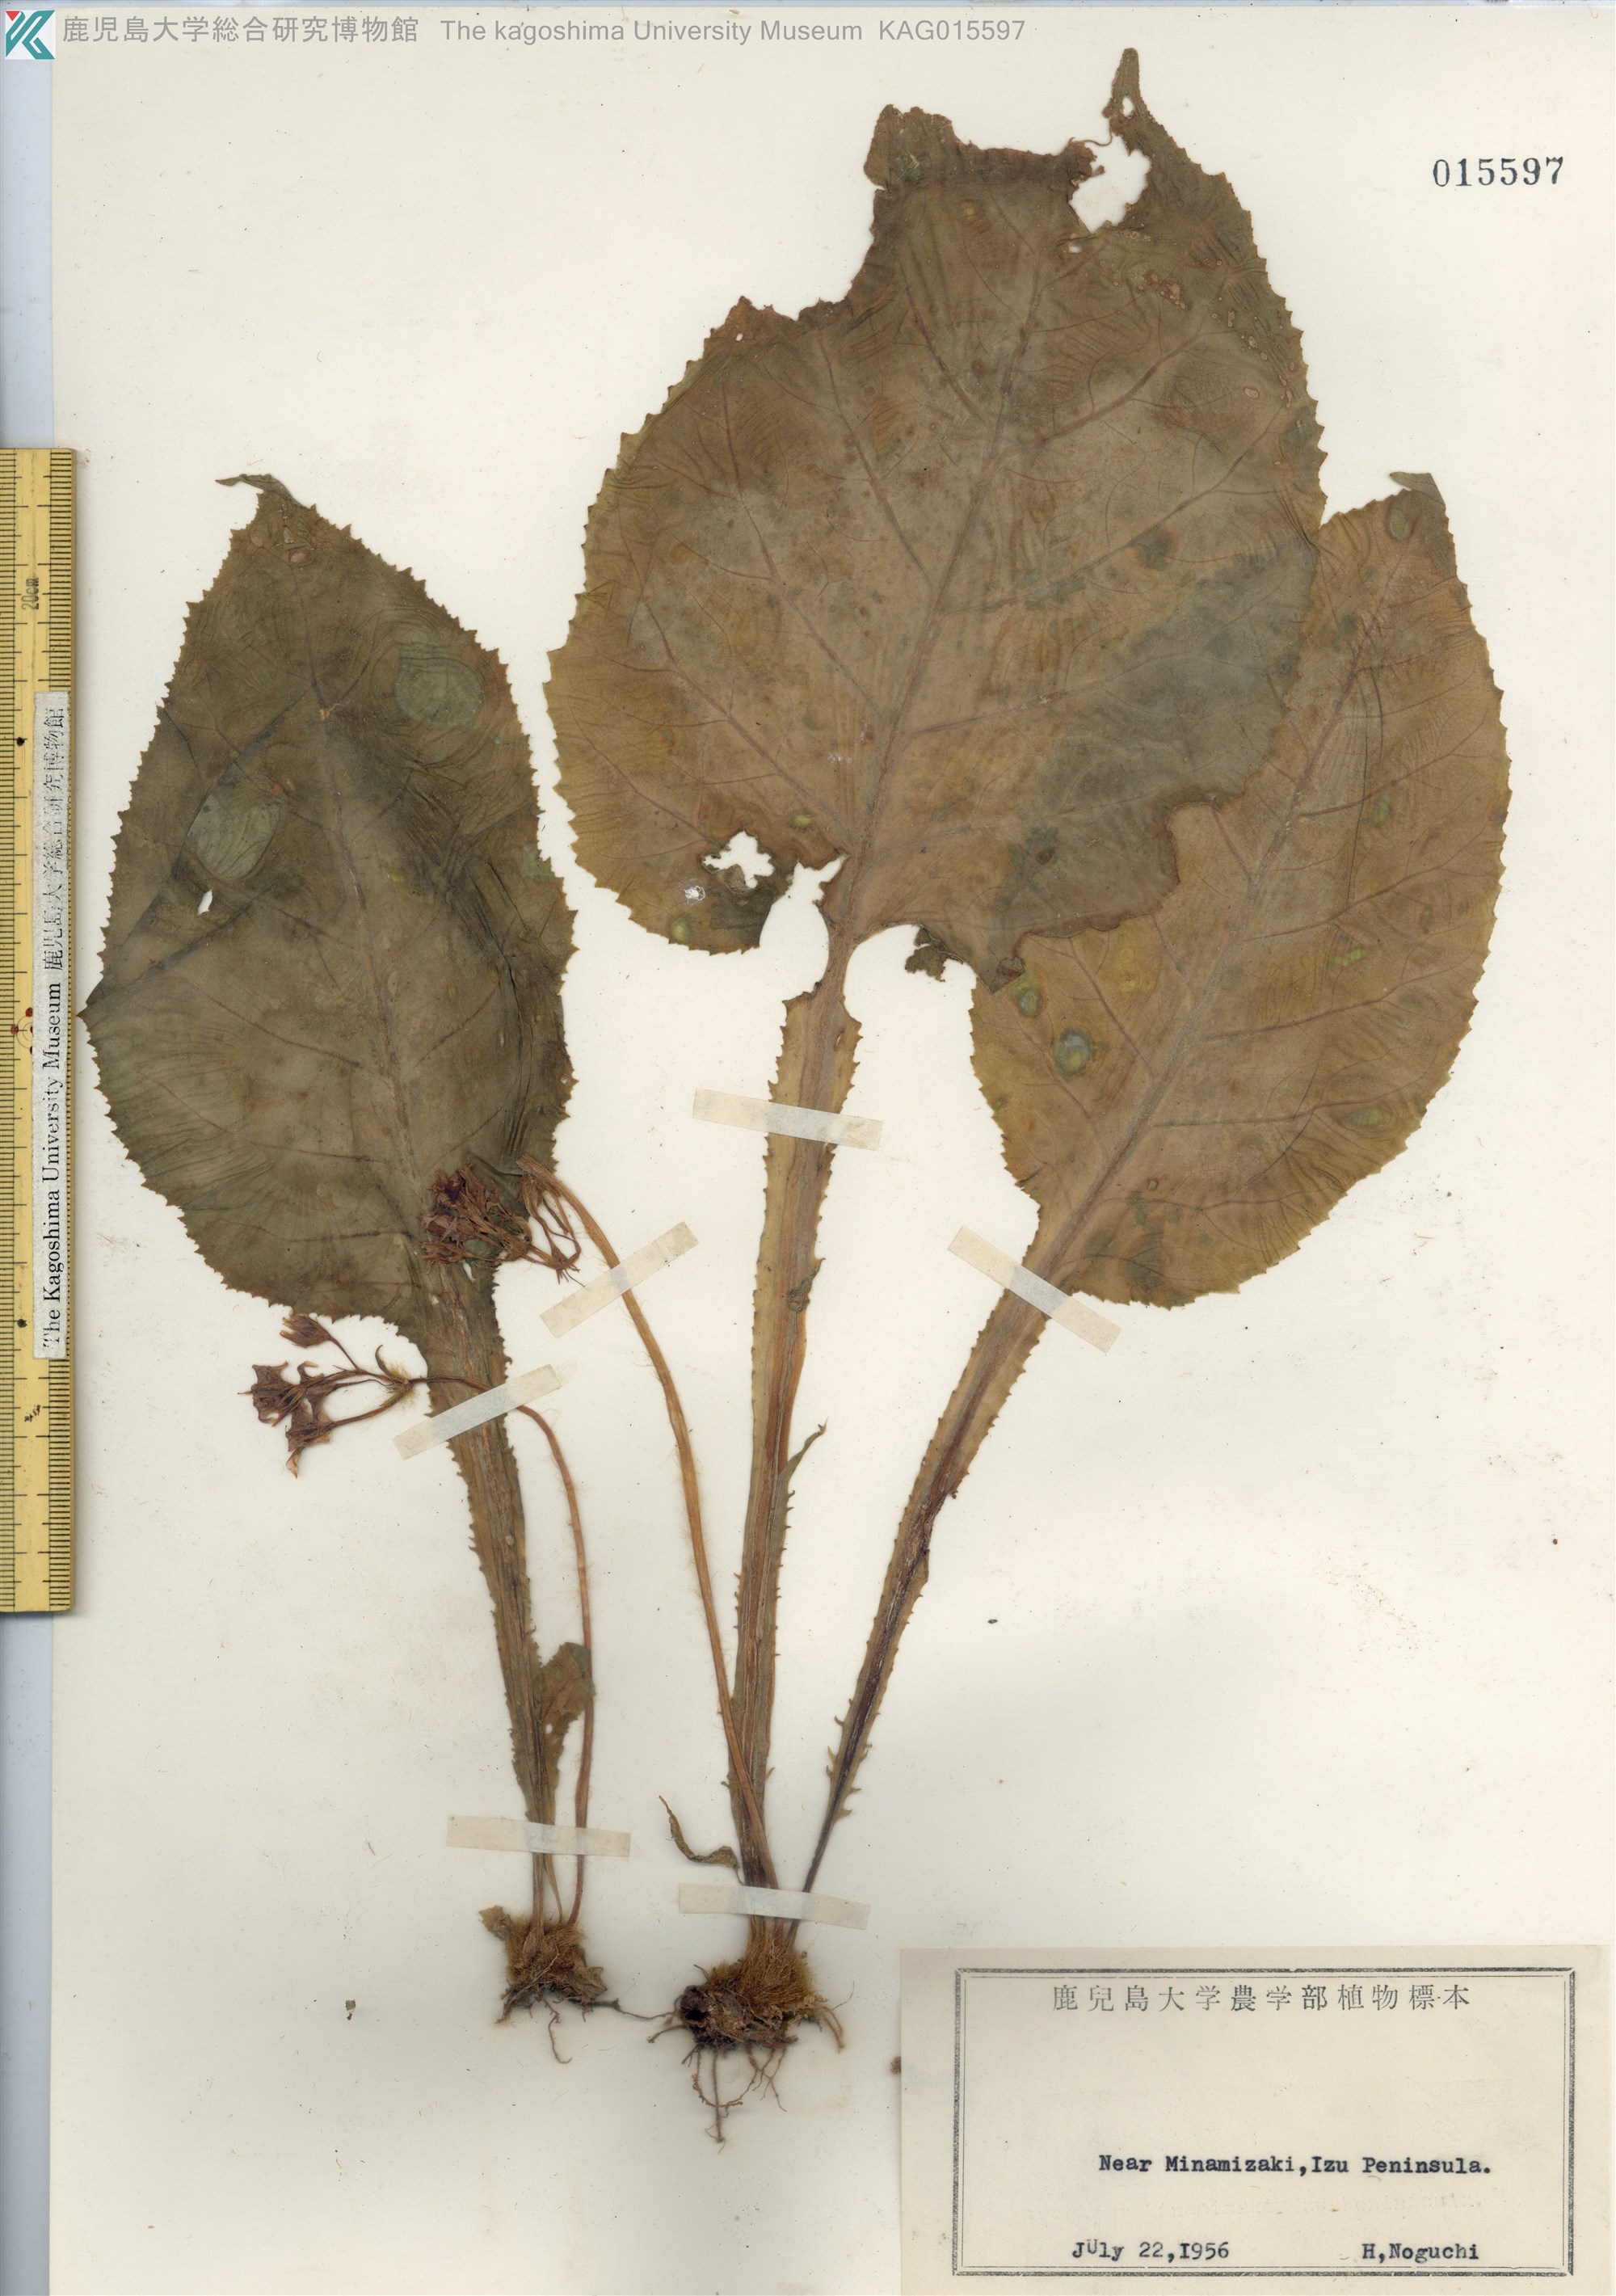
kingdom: Plantae
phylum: Tracheophyta
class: Magnoliopsida
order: Lamiales
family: Gesneriaceae
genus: Conandron
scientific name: Conandron ramondioides
